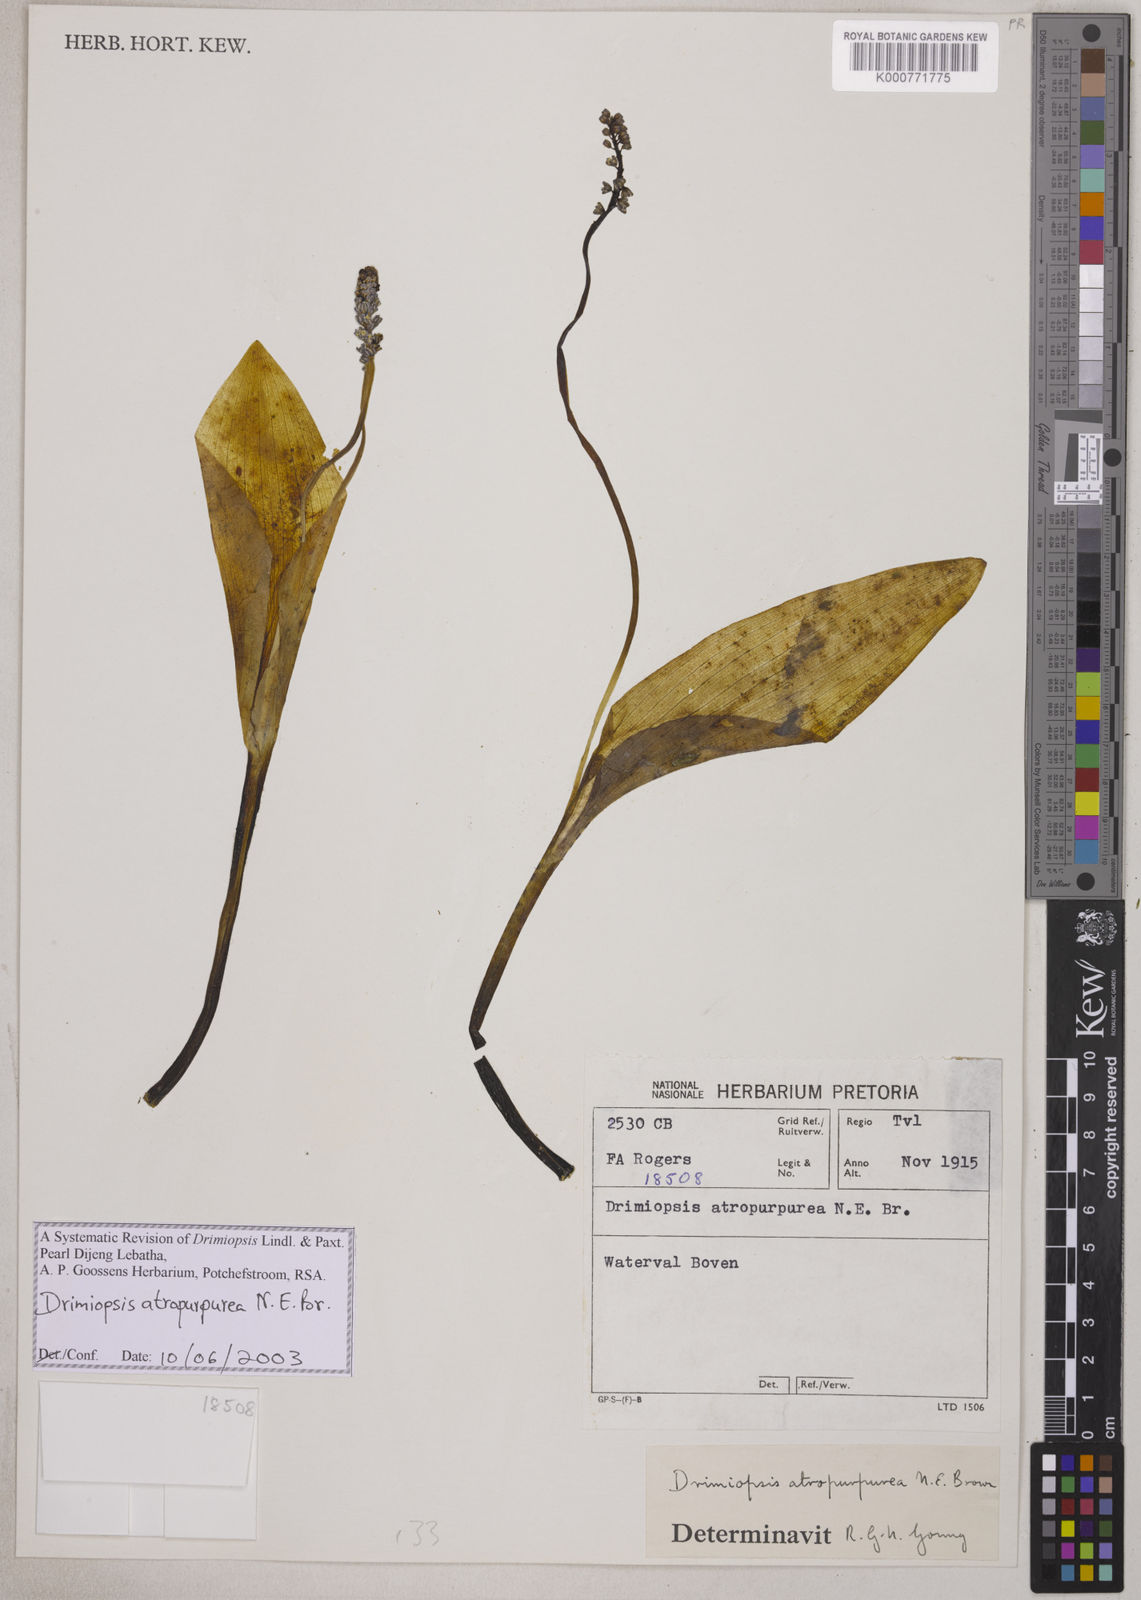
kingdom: Plantae
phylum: Tracheophyta
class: Liliopsida
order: Asparagales
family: Asparagaceae
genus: Drimiopsis
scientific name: Drimiopsis atropurpurea
